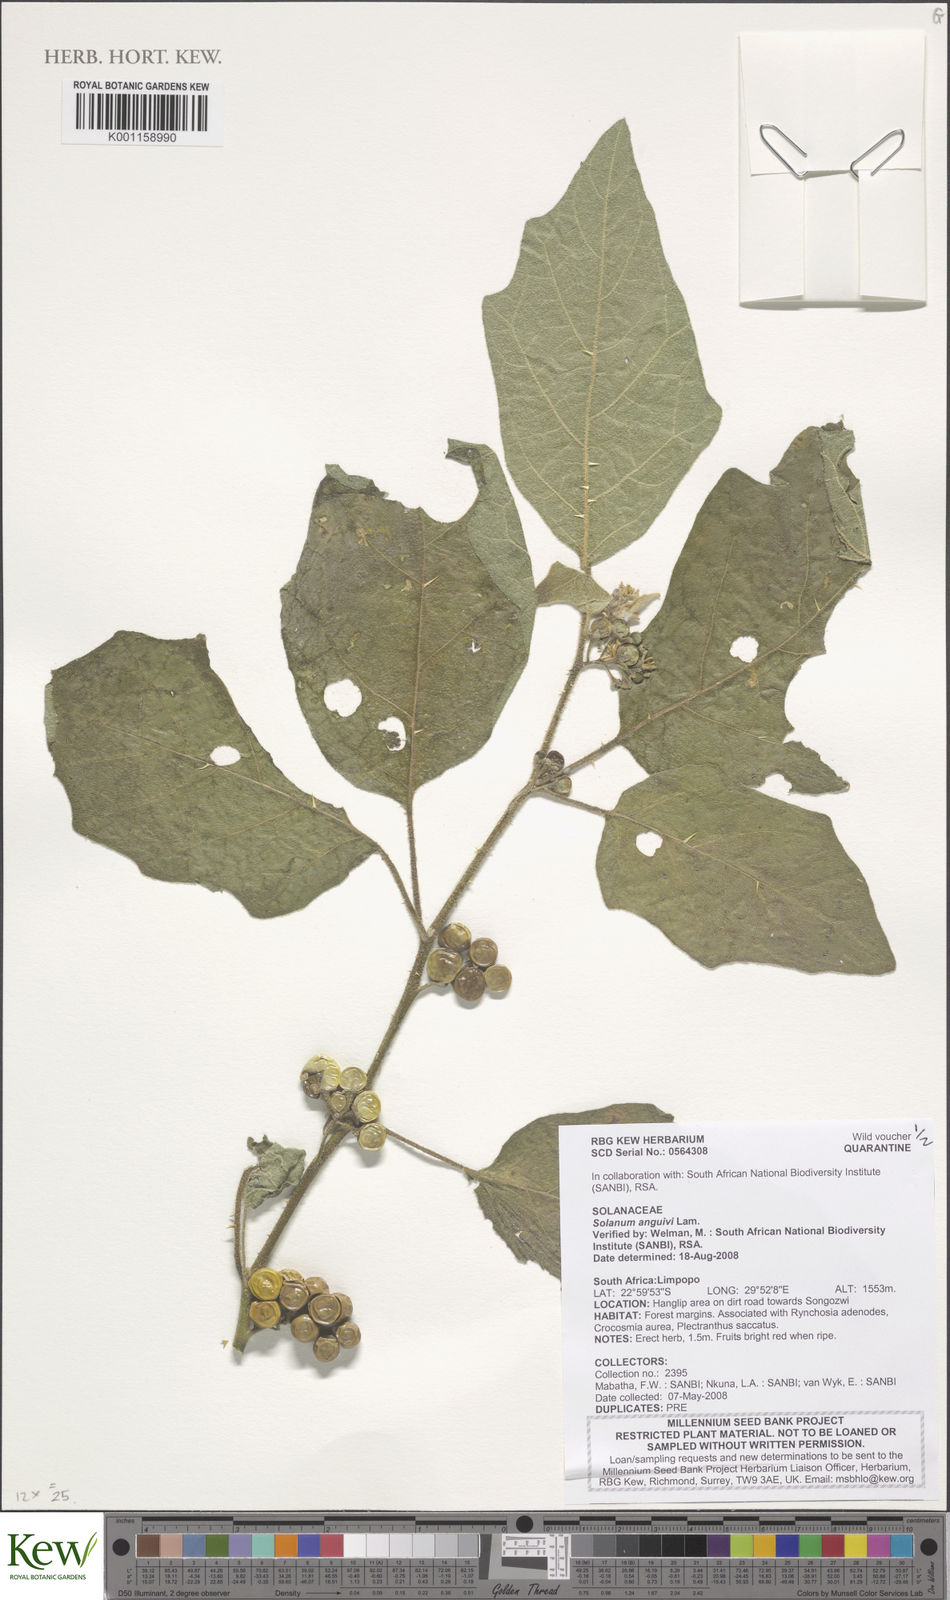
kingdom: Plantae
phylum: Tracheophyta
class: Magnoliopsida
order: Solanales
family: Solanaceae
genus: Solanum
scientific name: Solanum anguivi
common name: Forest bitterberry
